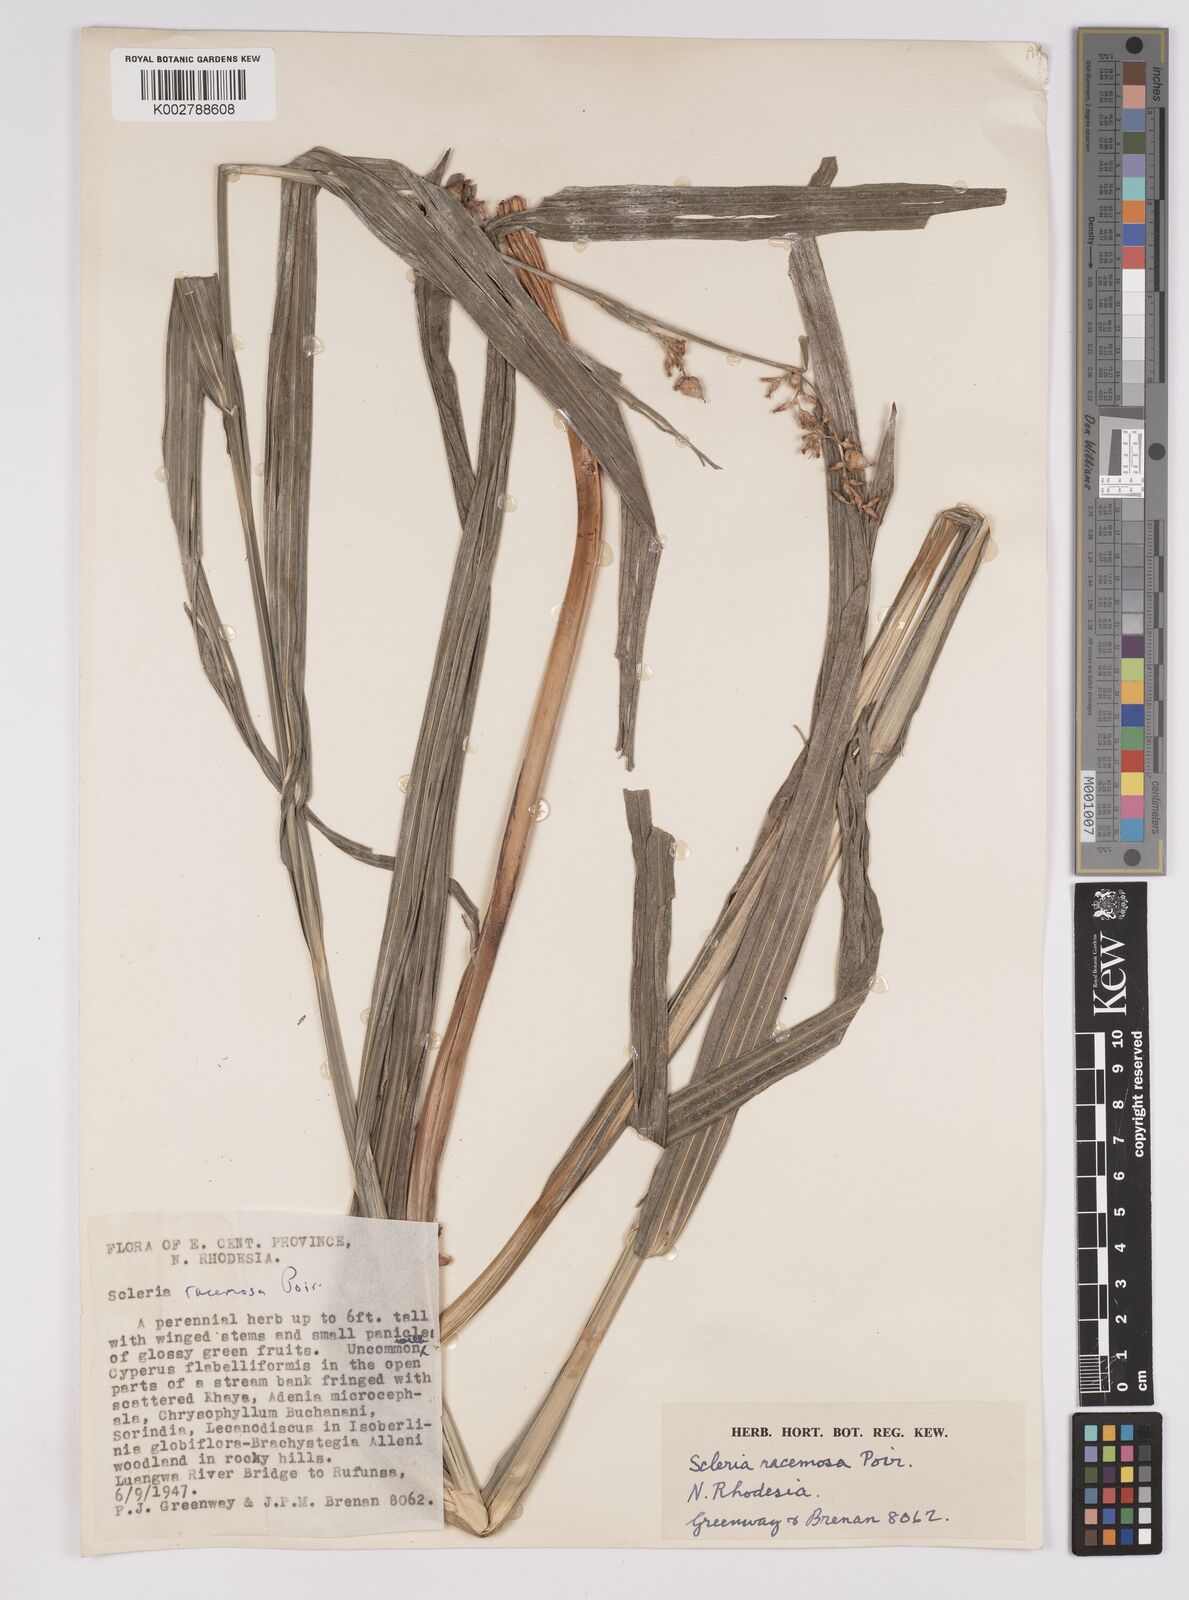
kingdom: Plantae
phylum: Tracheophyta
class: Liliopsida
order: Poales
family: Cyperaceae
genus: Scleria
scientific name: Scleria racemosa
